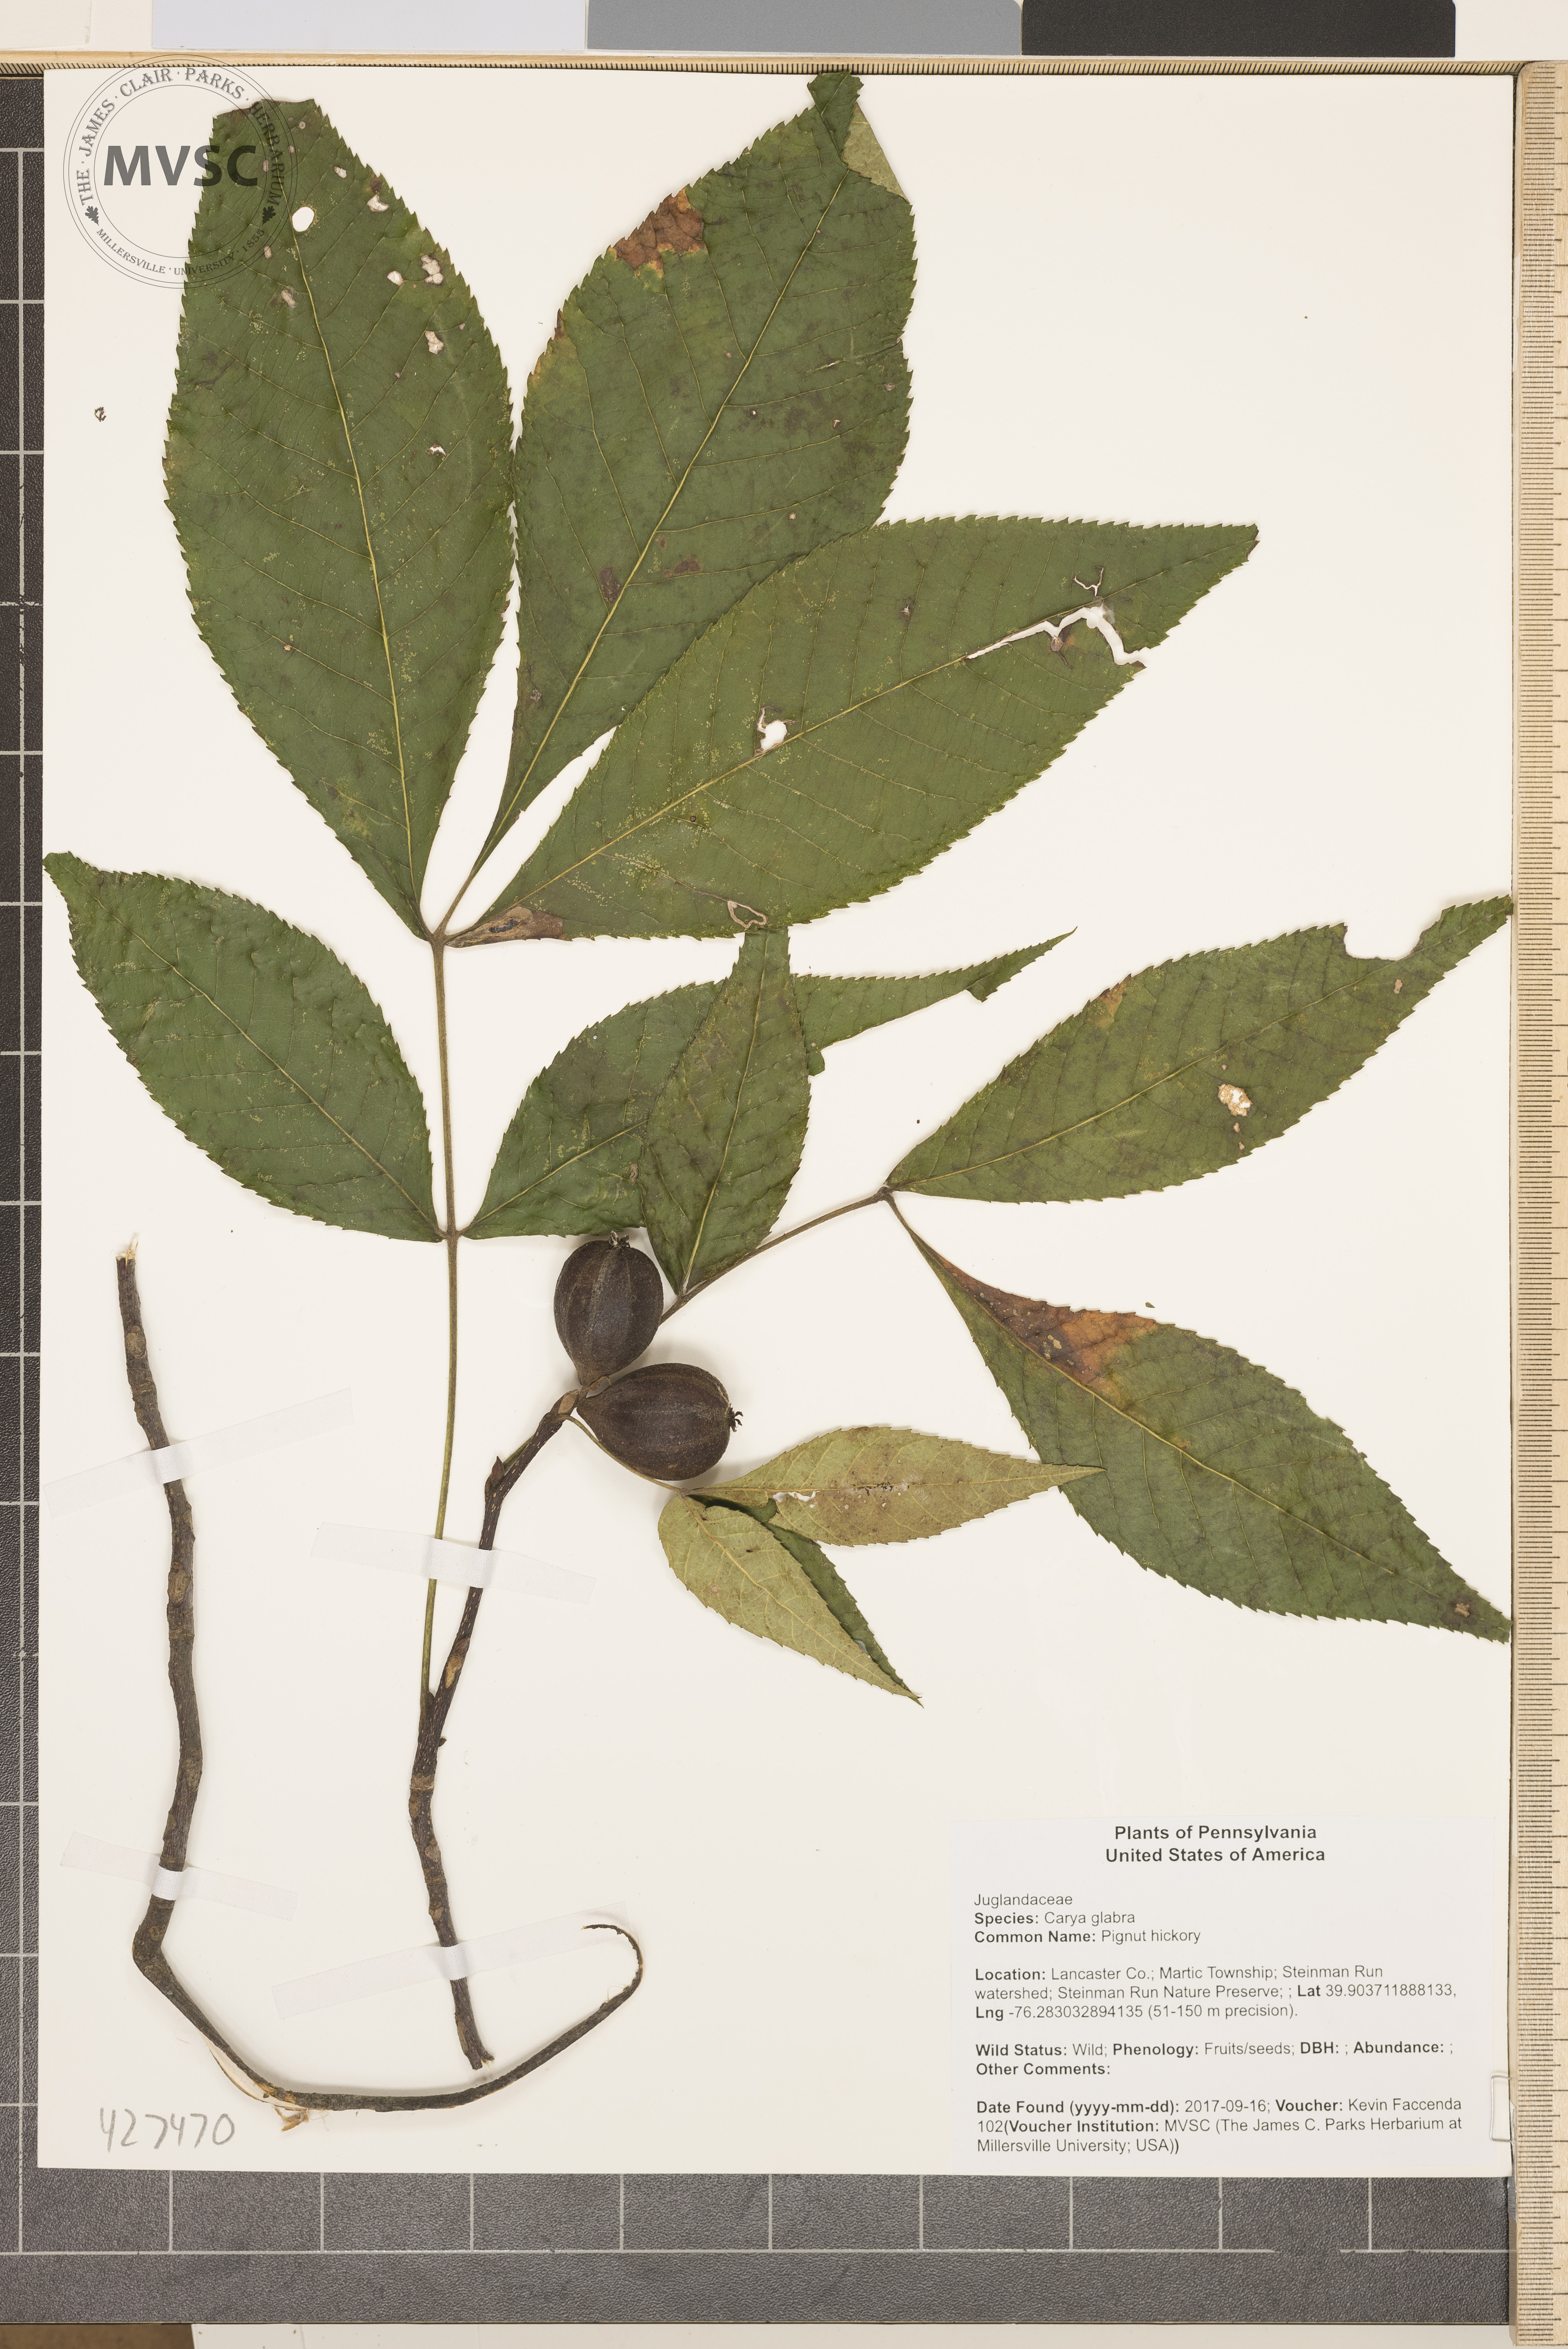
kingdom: Plantae
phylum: Tracheophyta
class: Magnoliopsida
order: Fagales
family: Juglandaceae
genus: Carya
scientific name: Carya glabra
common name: Pignut hickory
